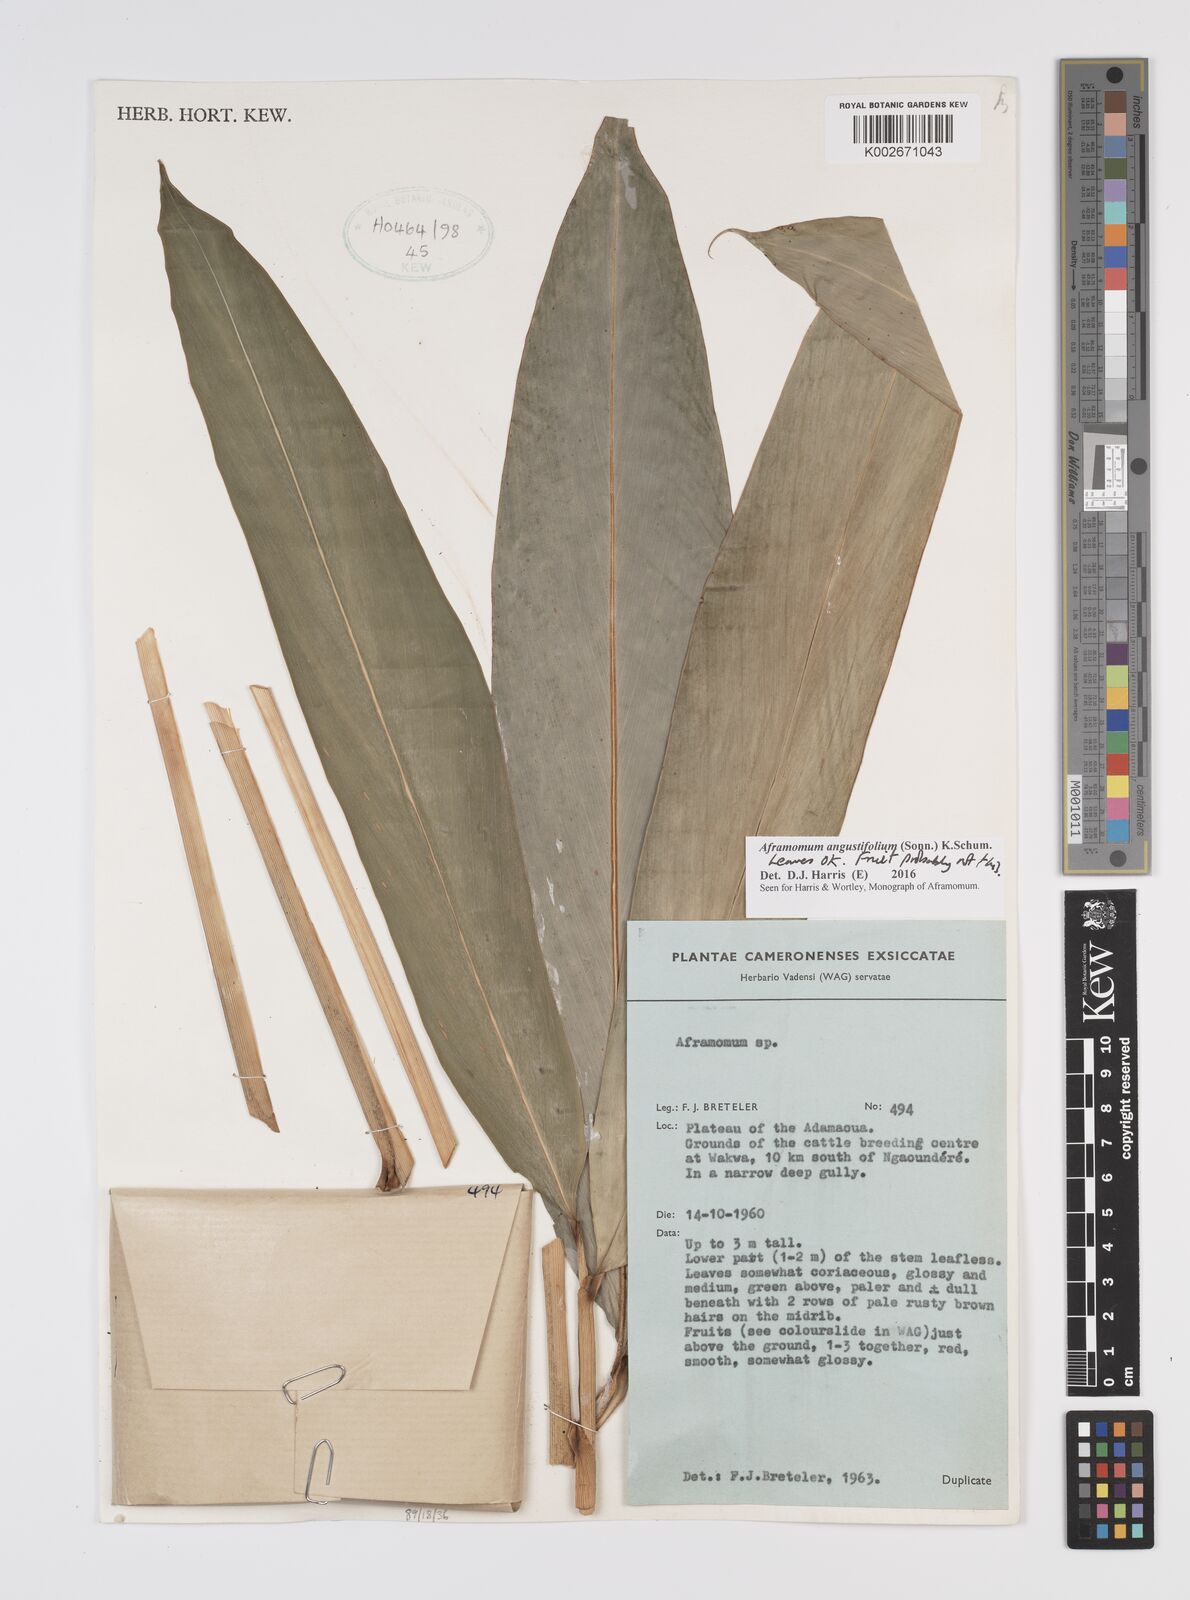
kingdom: Plantae
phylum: Tracheophyta
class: Liliopsida
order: Zingiberales
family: Zingiberaceae
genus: Aframomum
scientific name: Aframomum angustifolium
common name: Guinea grains
